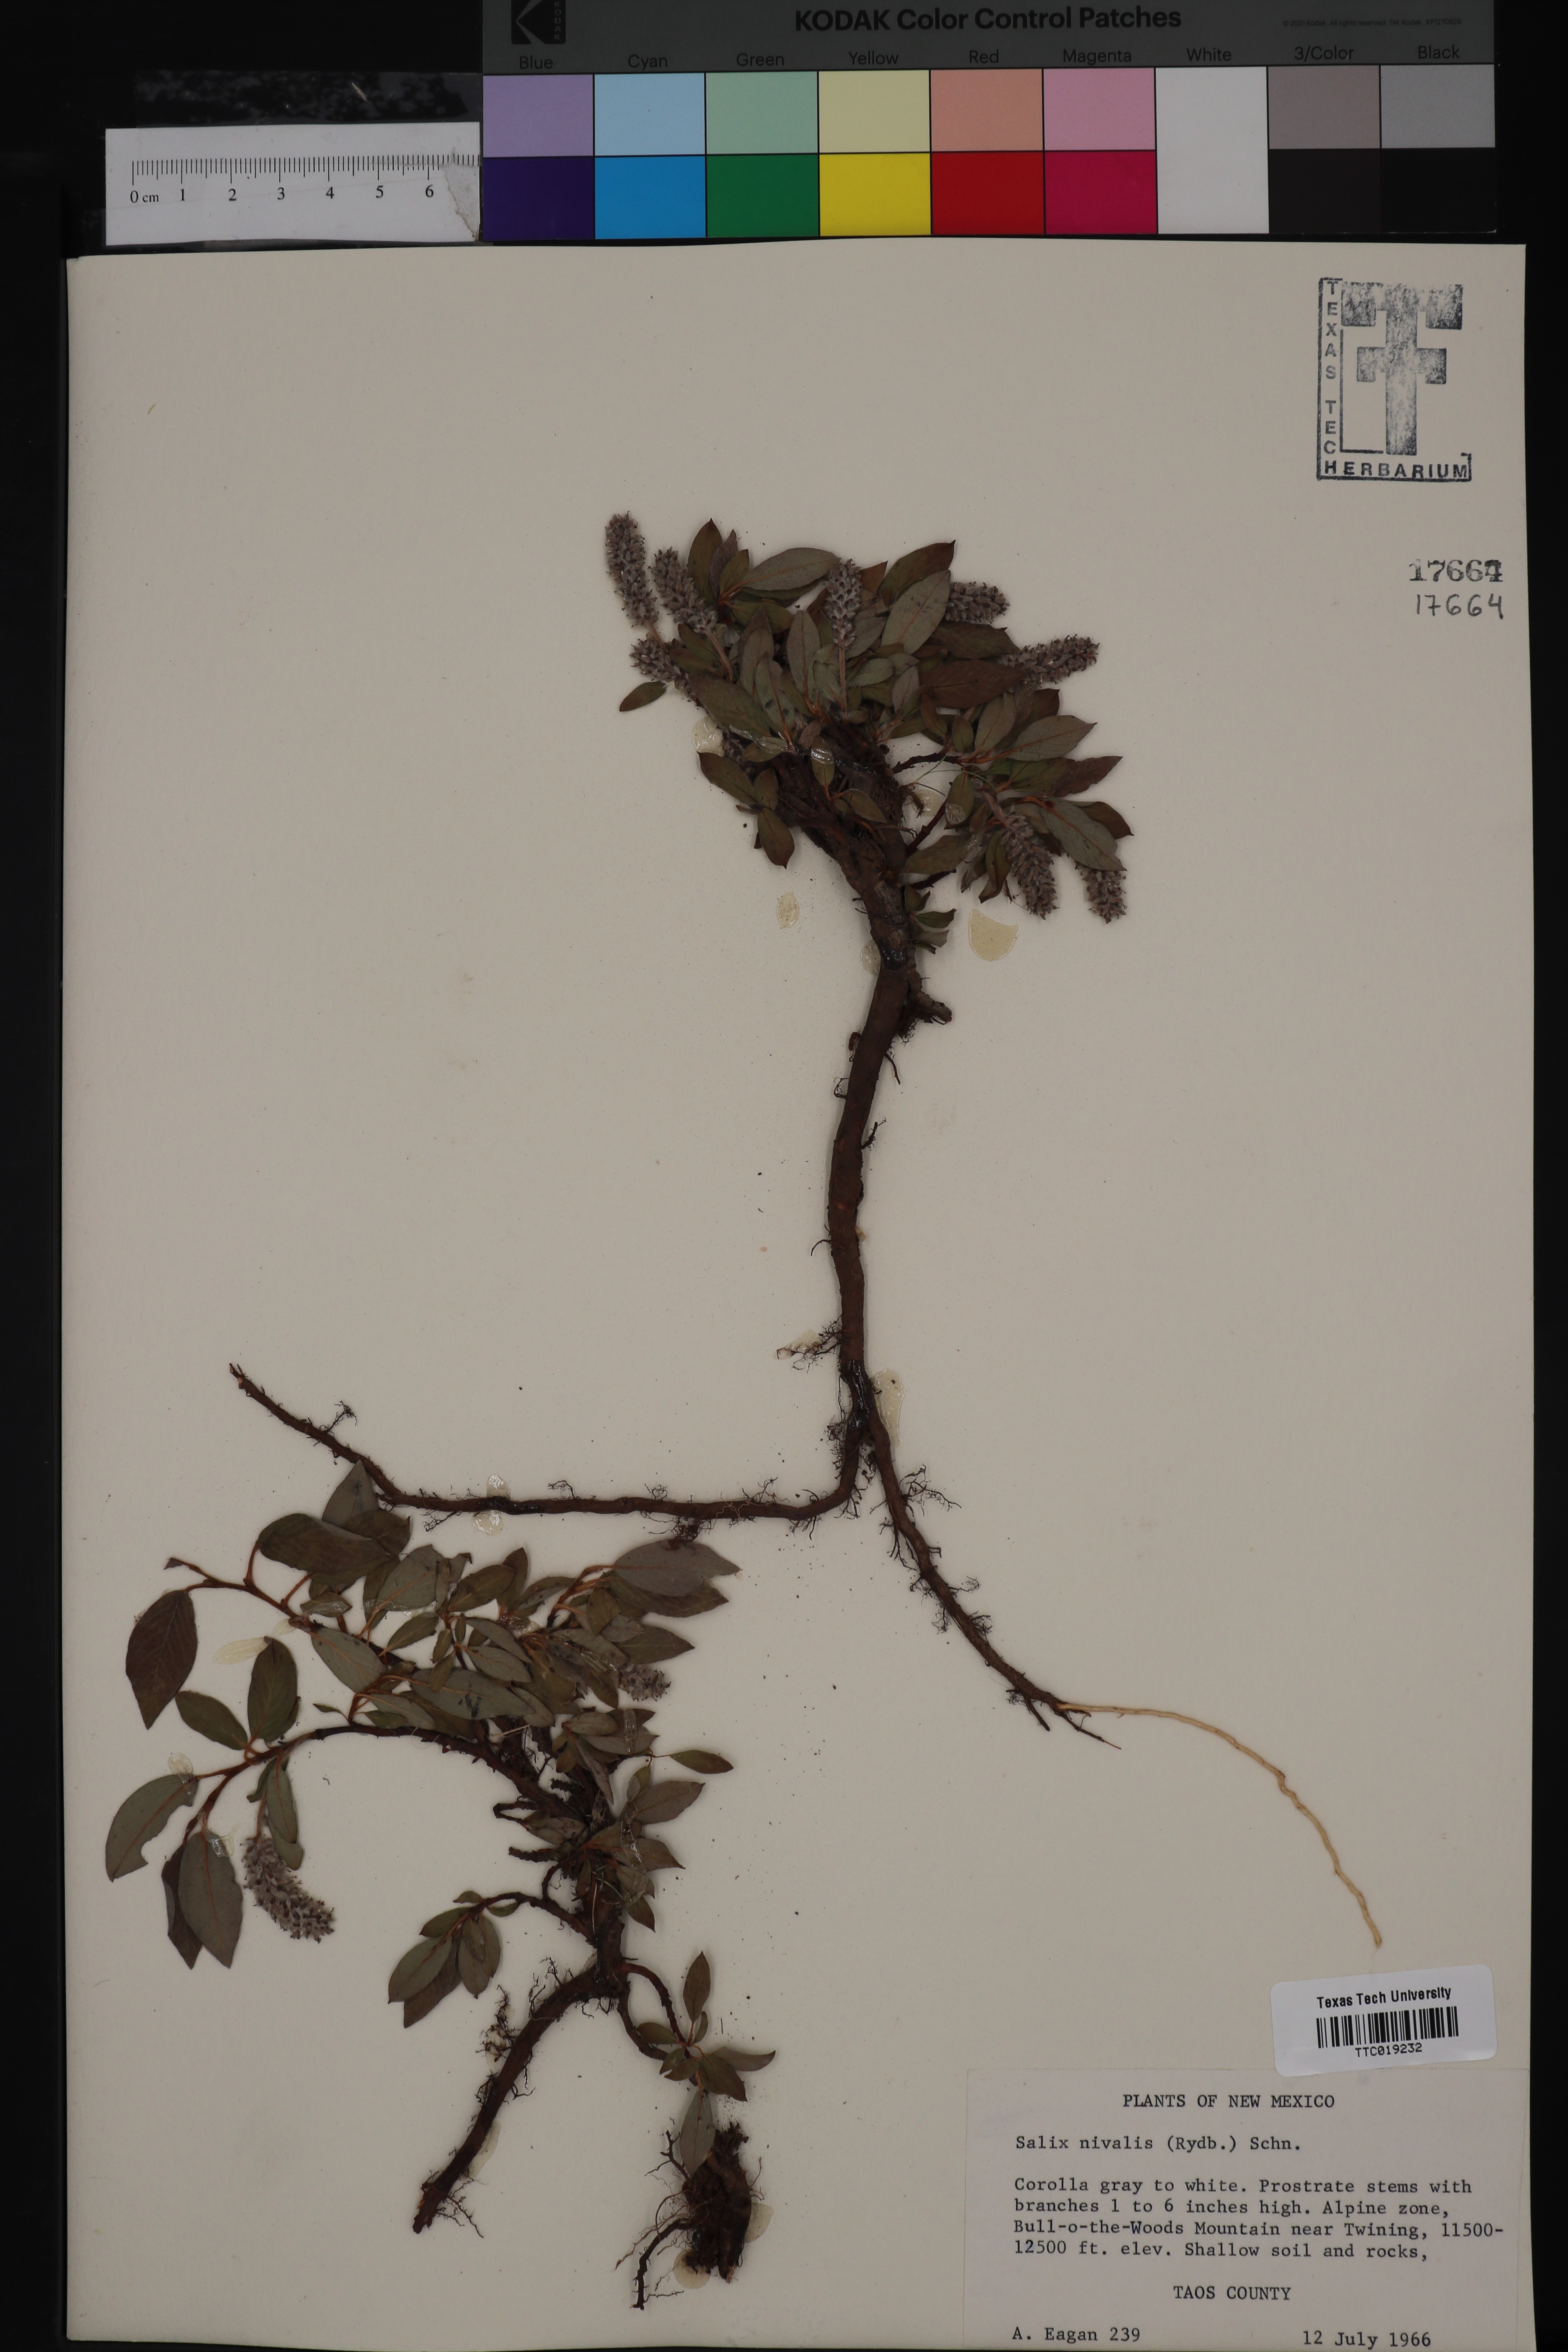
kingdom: Plantae
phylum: Tracheophyta
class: Magnoliopsida
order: Malpighiales
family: Salicaceae
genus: Salix
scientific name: Salix nivalis
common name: Dwarf snow willow
